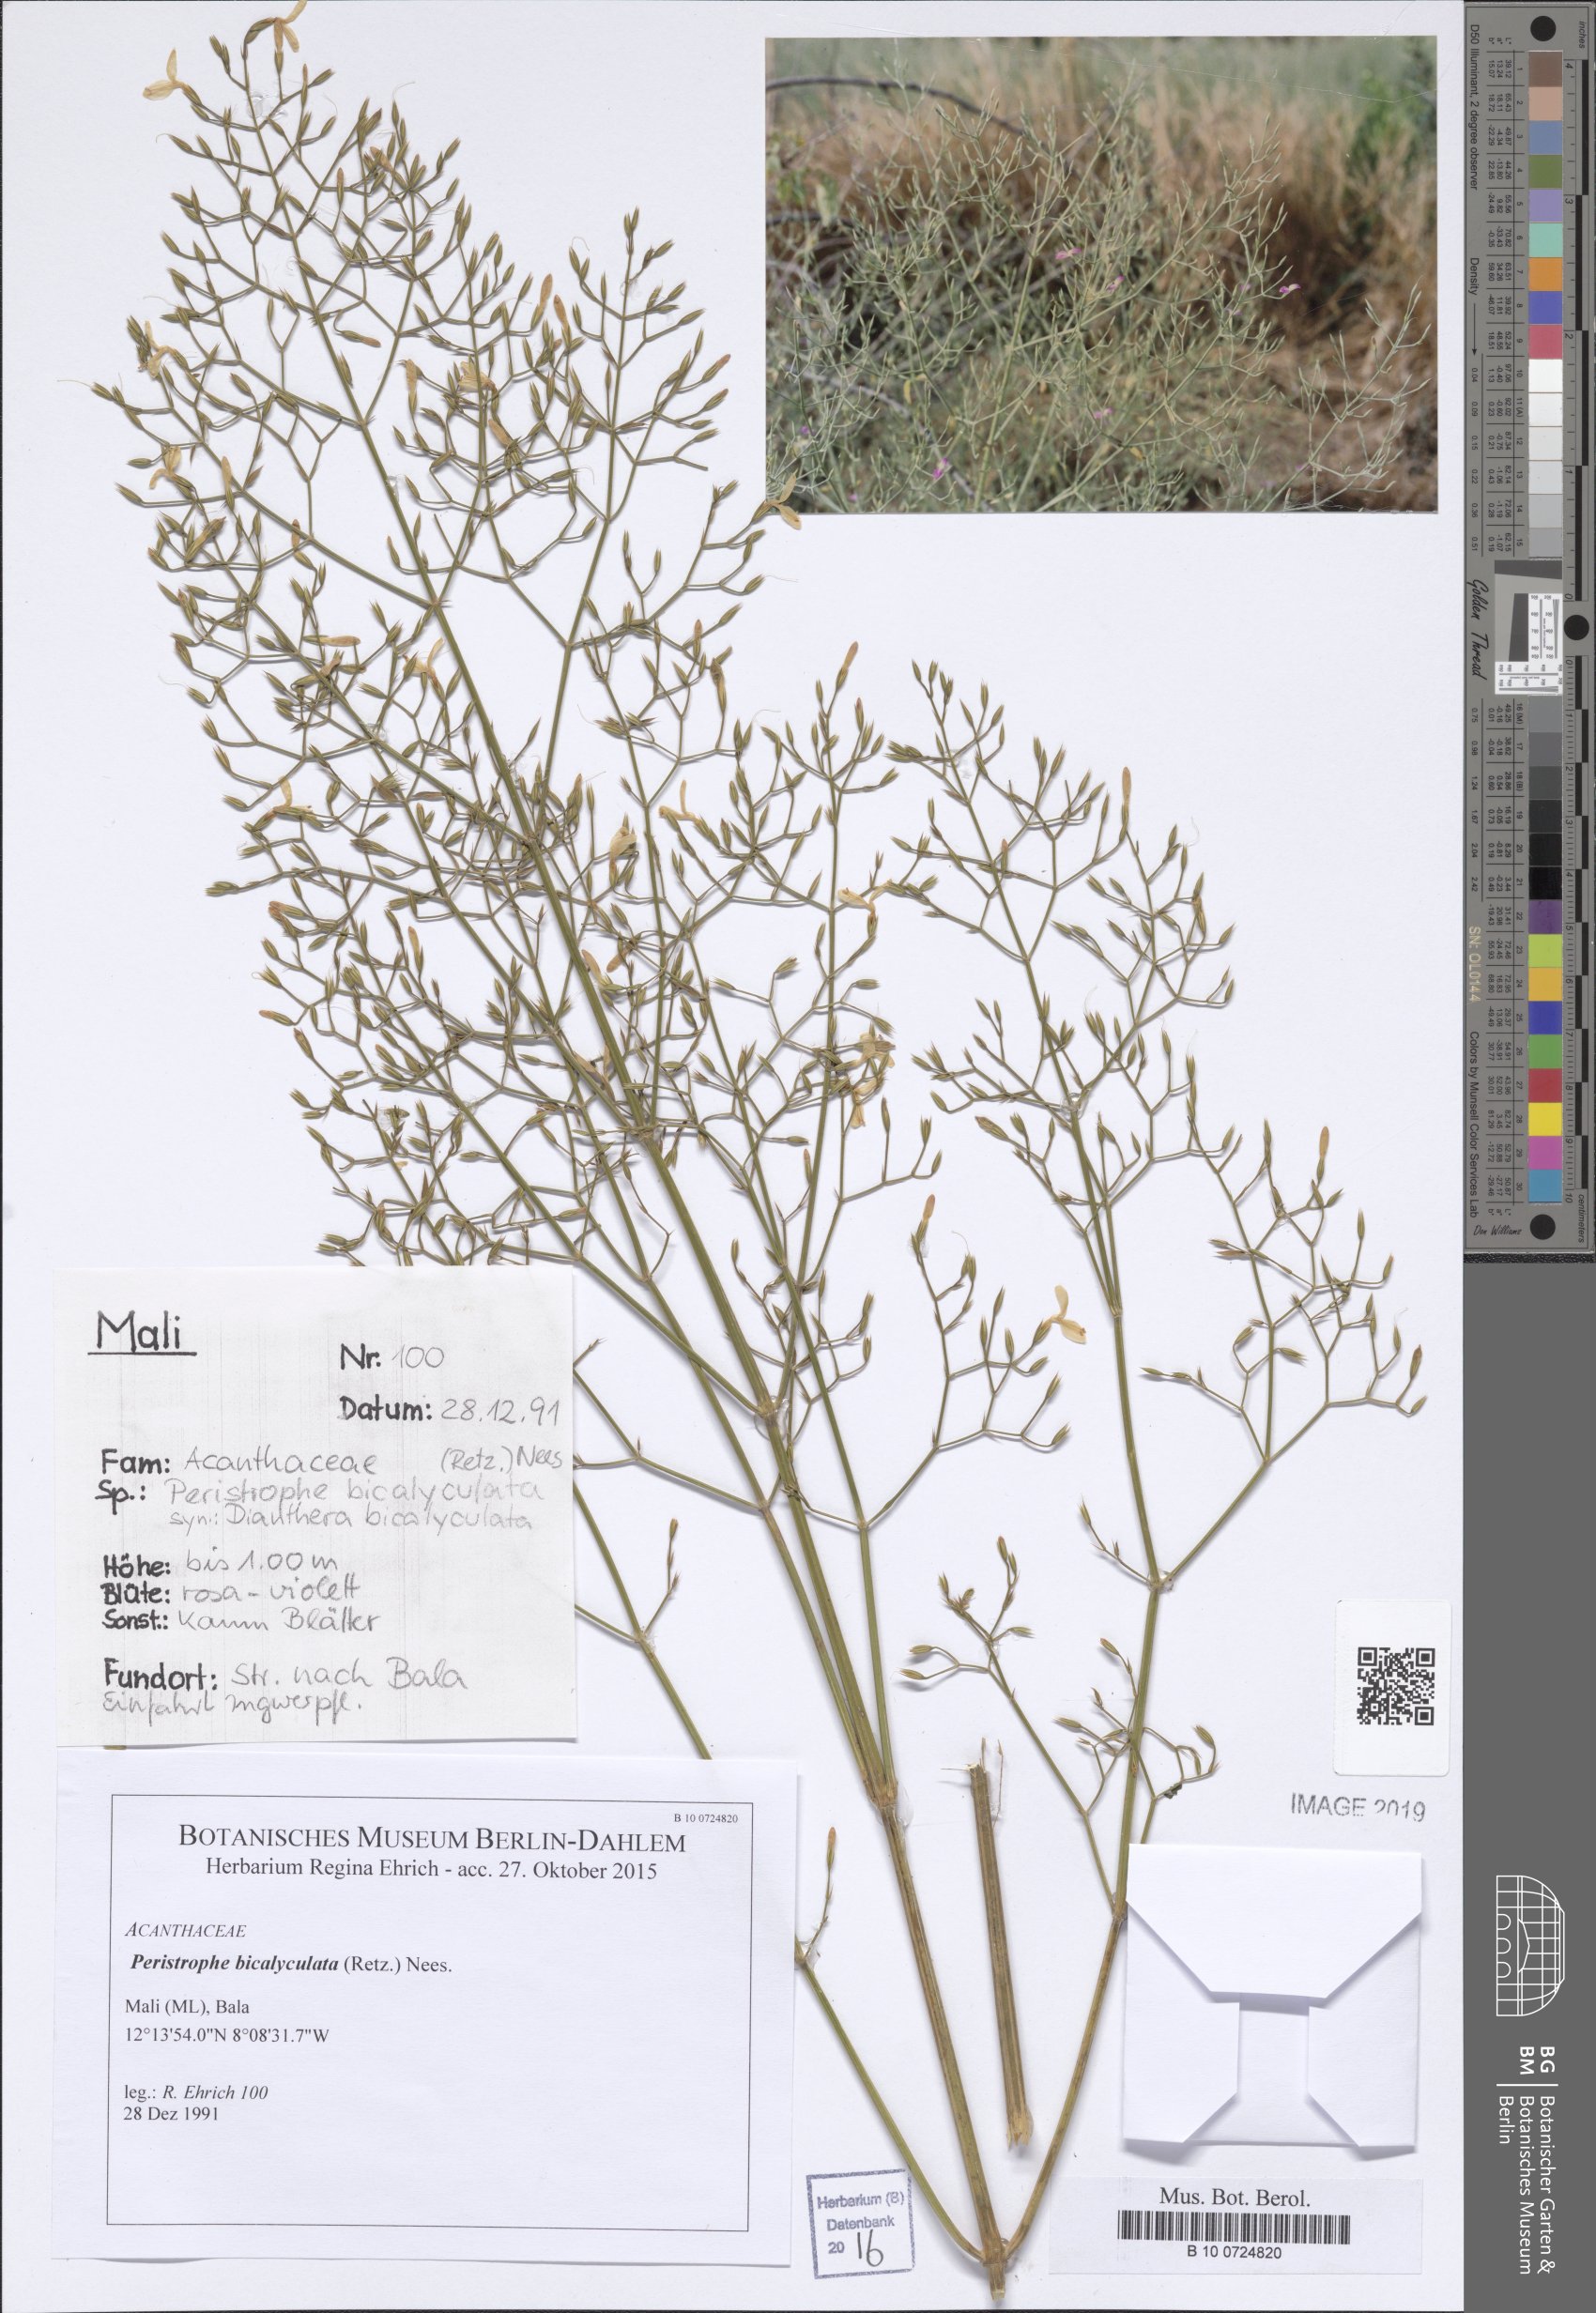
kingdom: Plantae
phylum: Tracheophyta
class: Magnoliopsida
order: Lamiales
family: Acanthaceae
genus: Dicliptera
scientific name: Dicliptera paniculata
